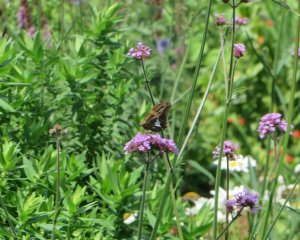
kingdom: Animalia
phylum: Arthropoda
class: Insecta
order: Lepidoptera
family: Hesperiidae
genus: Epargyreus
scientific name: Epargyreus clarus
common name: Silver-spotted Skipper
